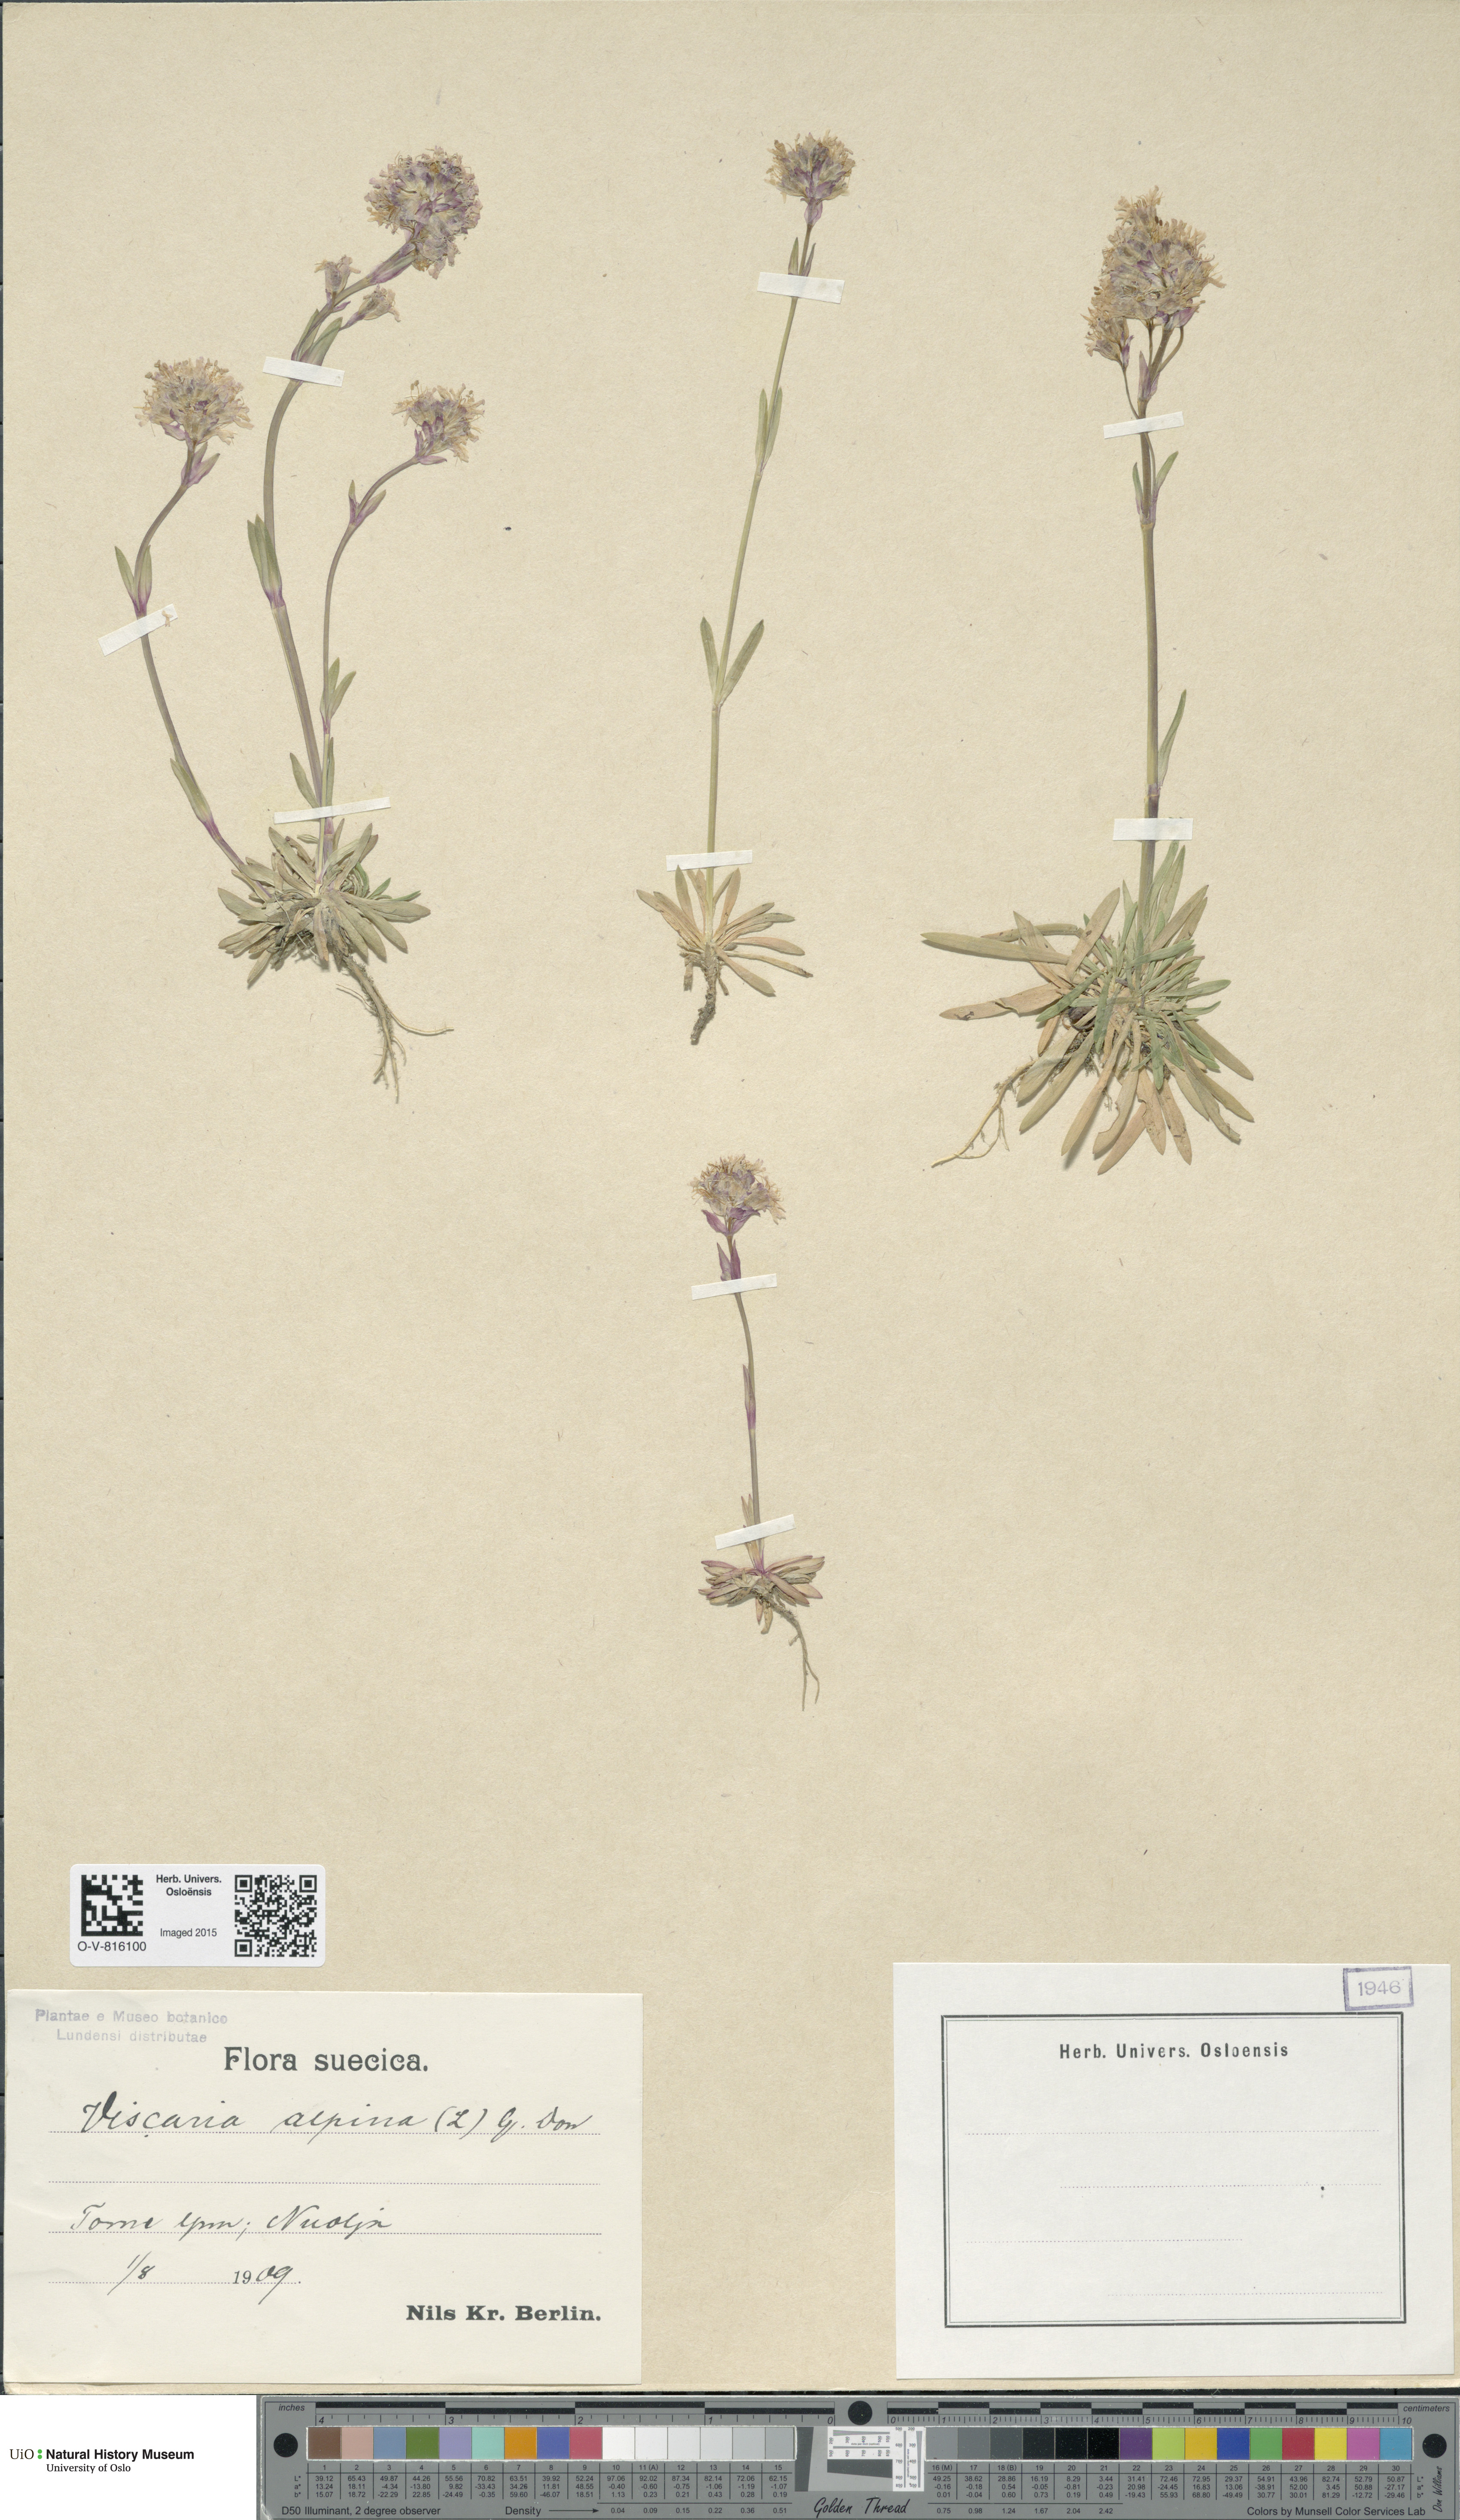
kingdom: Plantae
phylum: Tracheophyta
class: Magnoliopsida
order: Caryophyllales
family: Caryophyllaceae
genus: Viscaria
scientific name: Viscaria alpina
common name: Alpine campion
